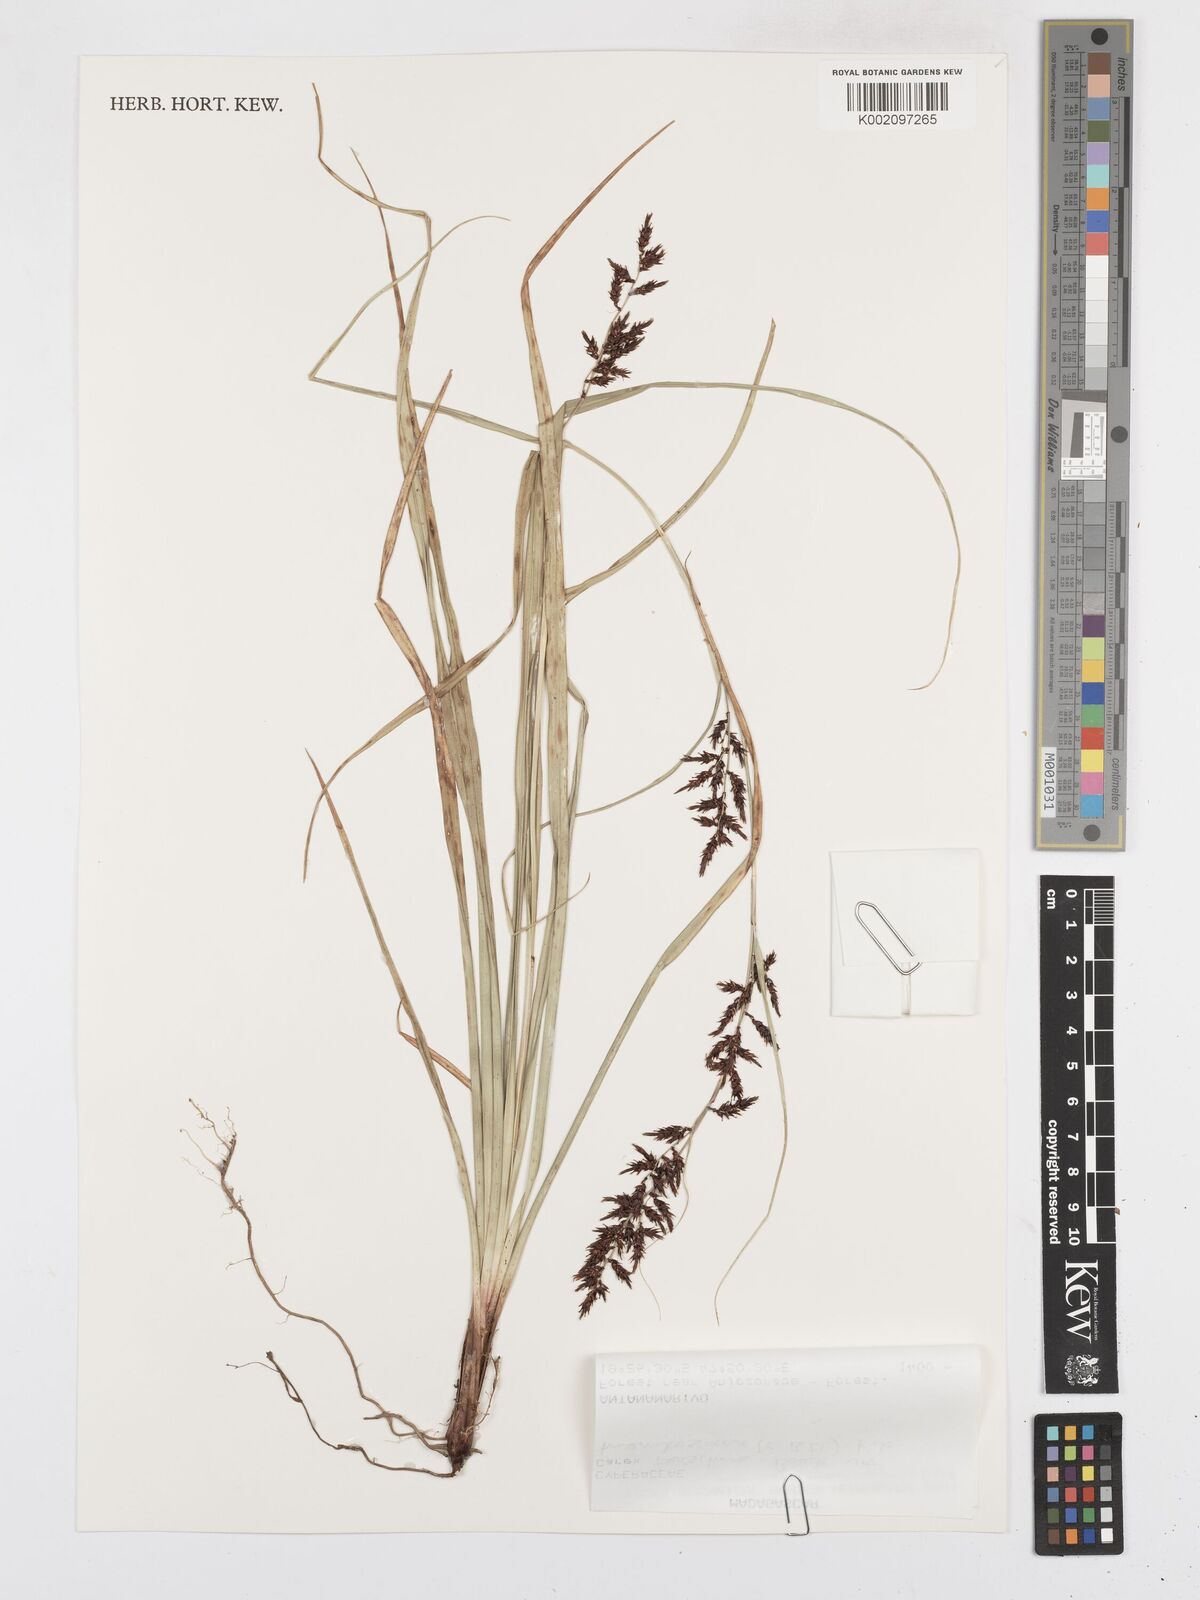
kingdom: Plantae
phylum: Tracheophyta
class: Liliopsida
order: Poales
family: Cyperaceae
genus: Carex
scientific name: Carex renschiana
